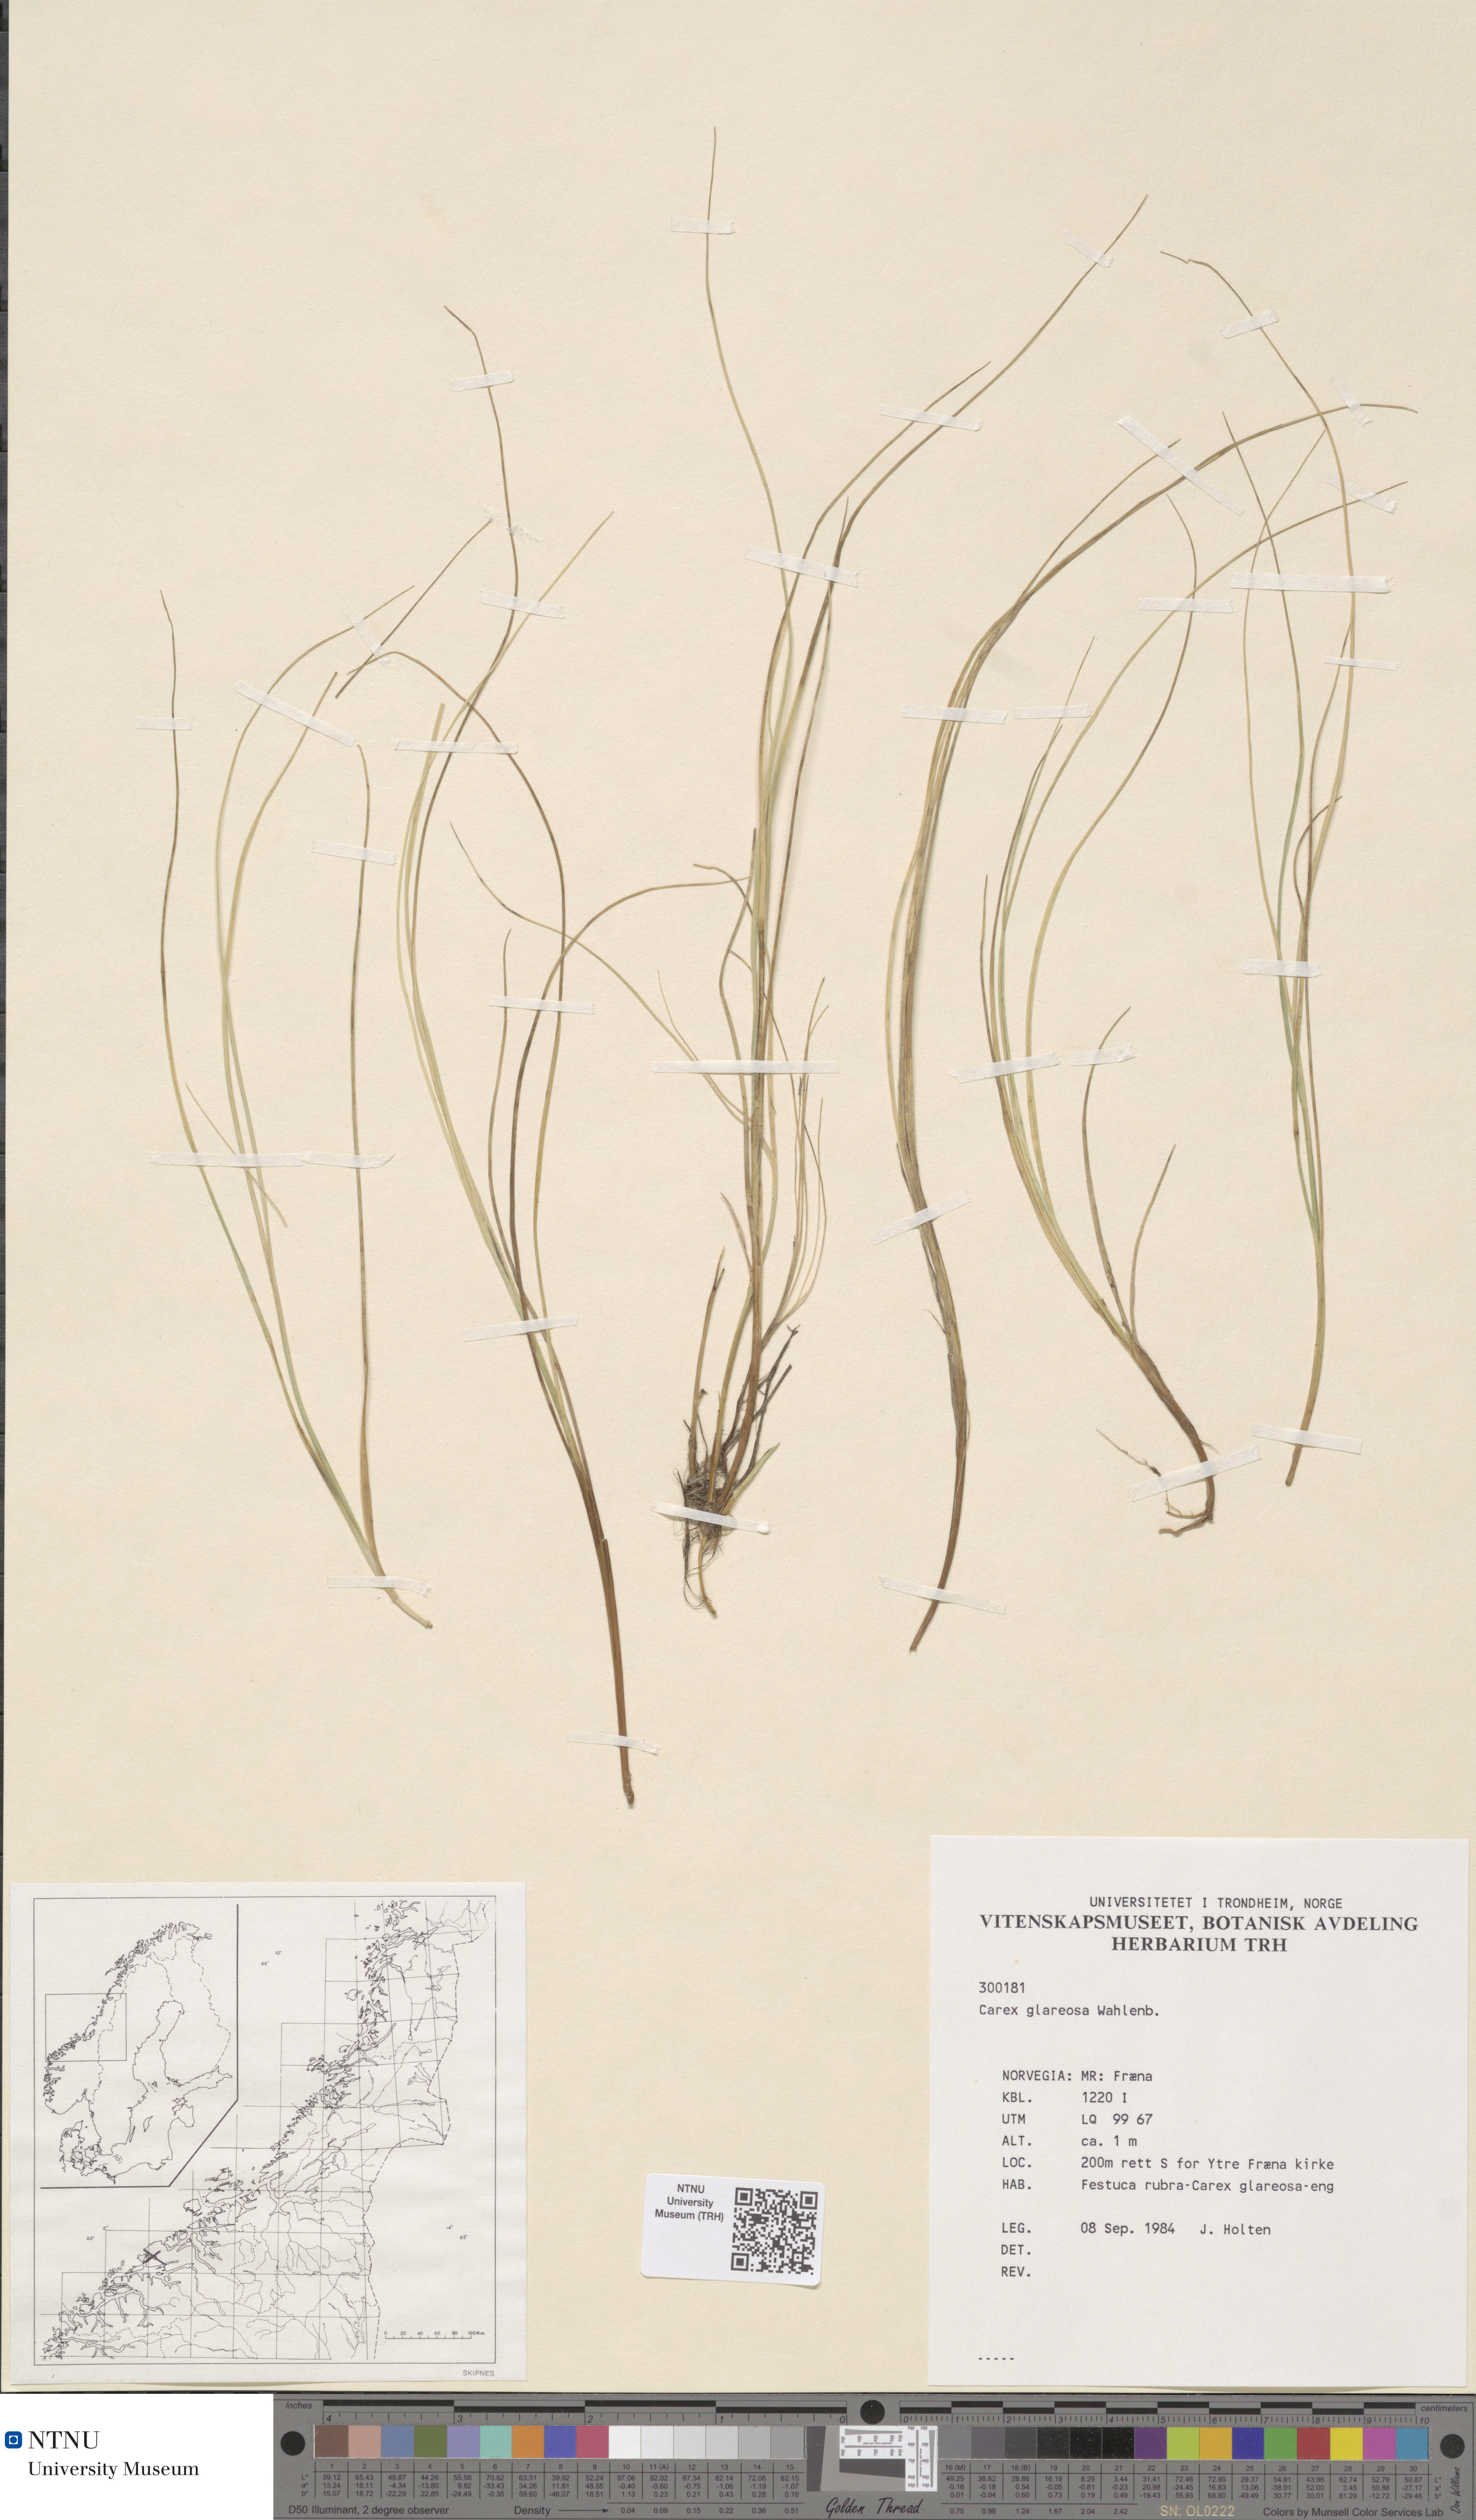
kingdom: Plantae
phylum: Tracheophyta
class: Liliopsida
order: Poales
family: Cyperaceae
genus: Carex
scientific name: Carex glareosa
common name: Clustered sedge
